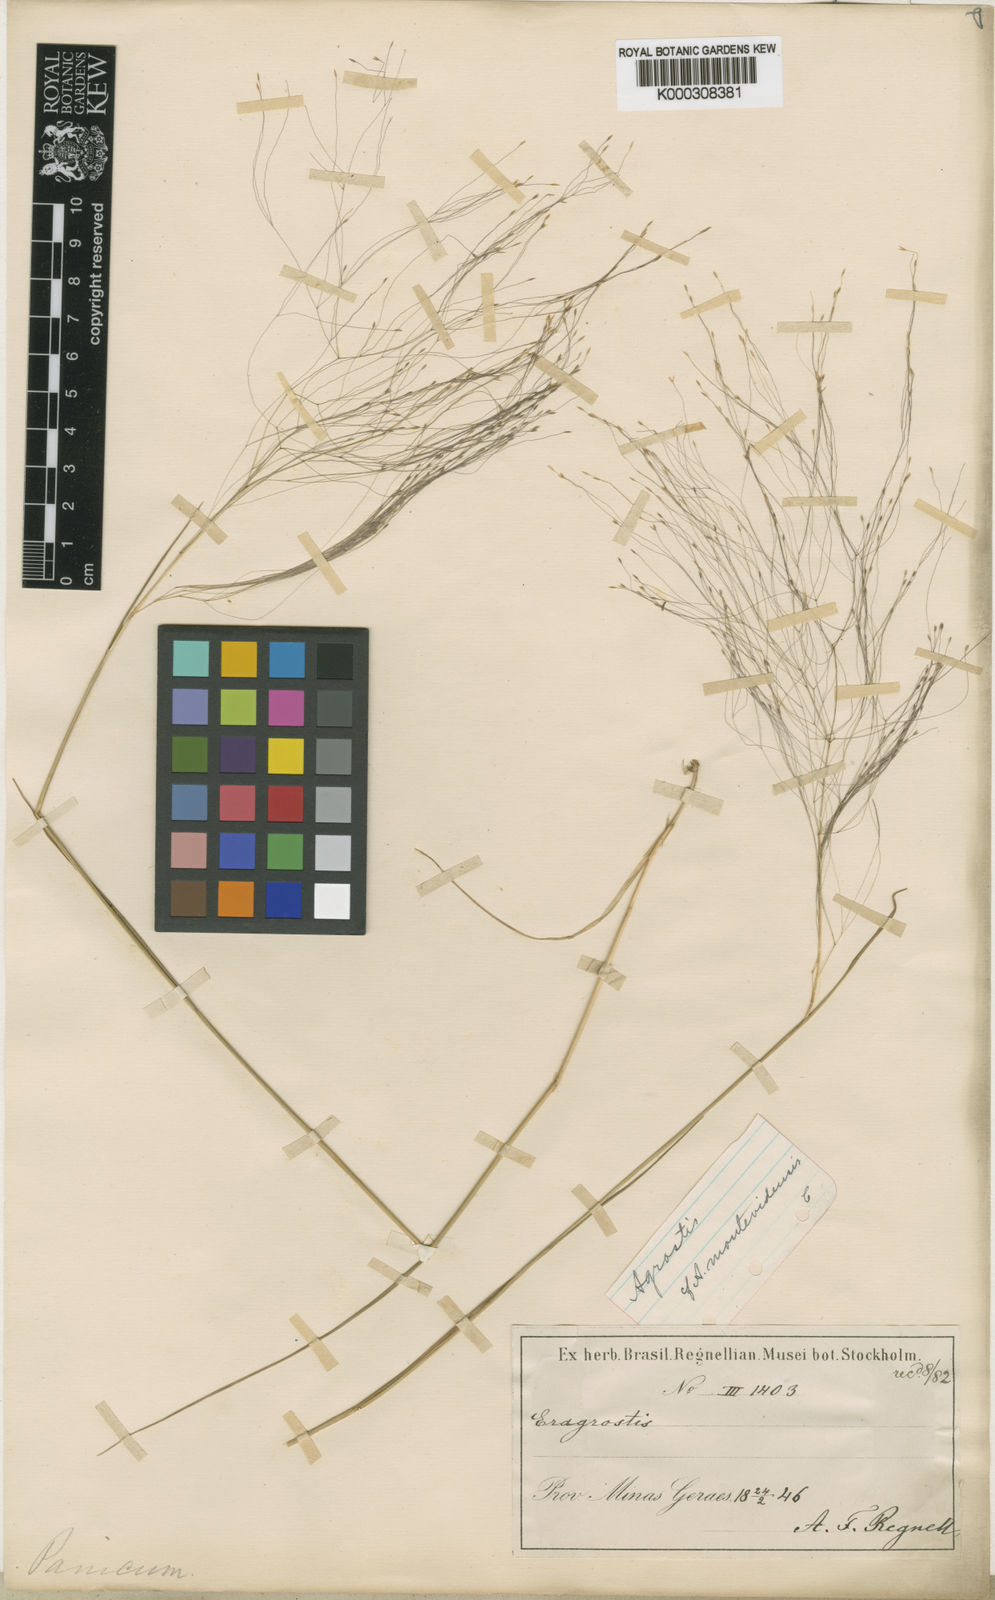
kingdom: Plantae
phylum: Tracheophyta
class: Liliopsida
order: Poales
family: Poaceae
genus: Agrostis
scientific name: Agrostis montevidensis
